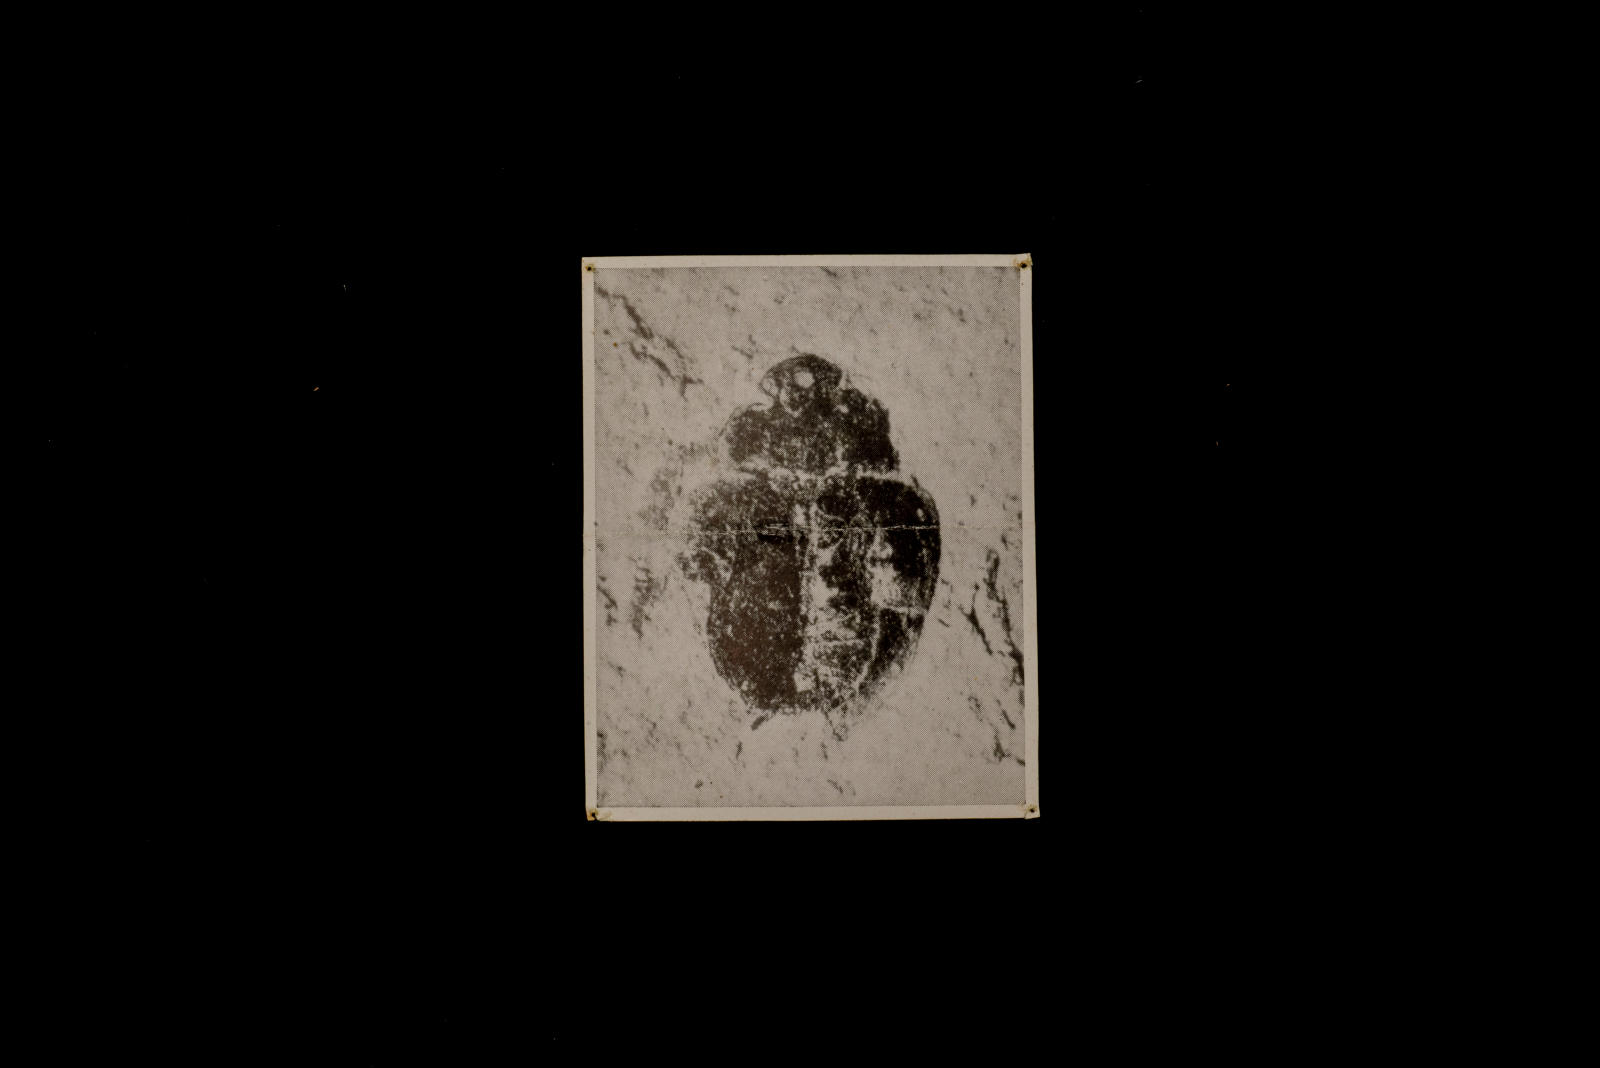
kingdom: Animalia
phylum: Arthropoda
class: Insecta
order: Coleoptera
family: Hydrophilidae
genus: Paracymus
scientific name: Paracymus
